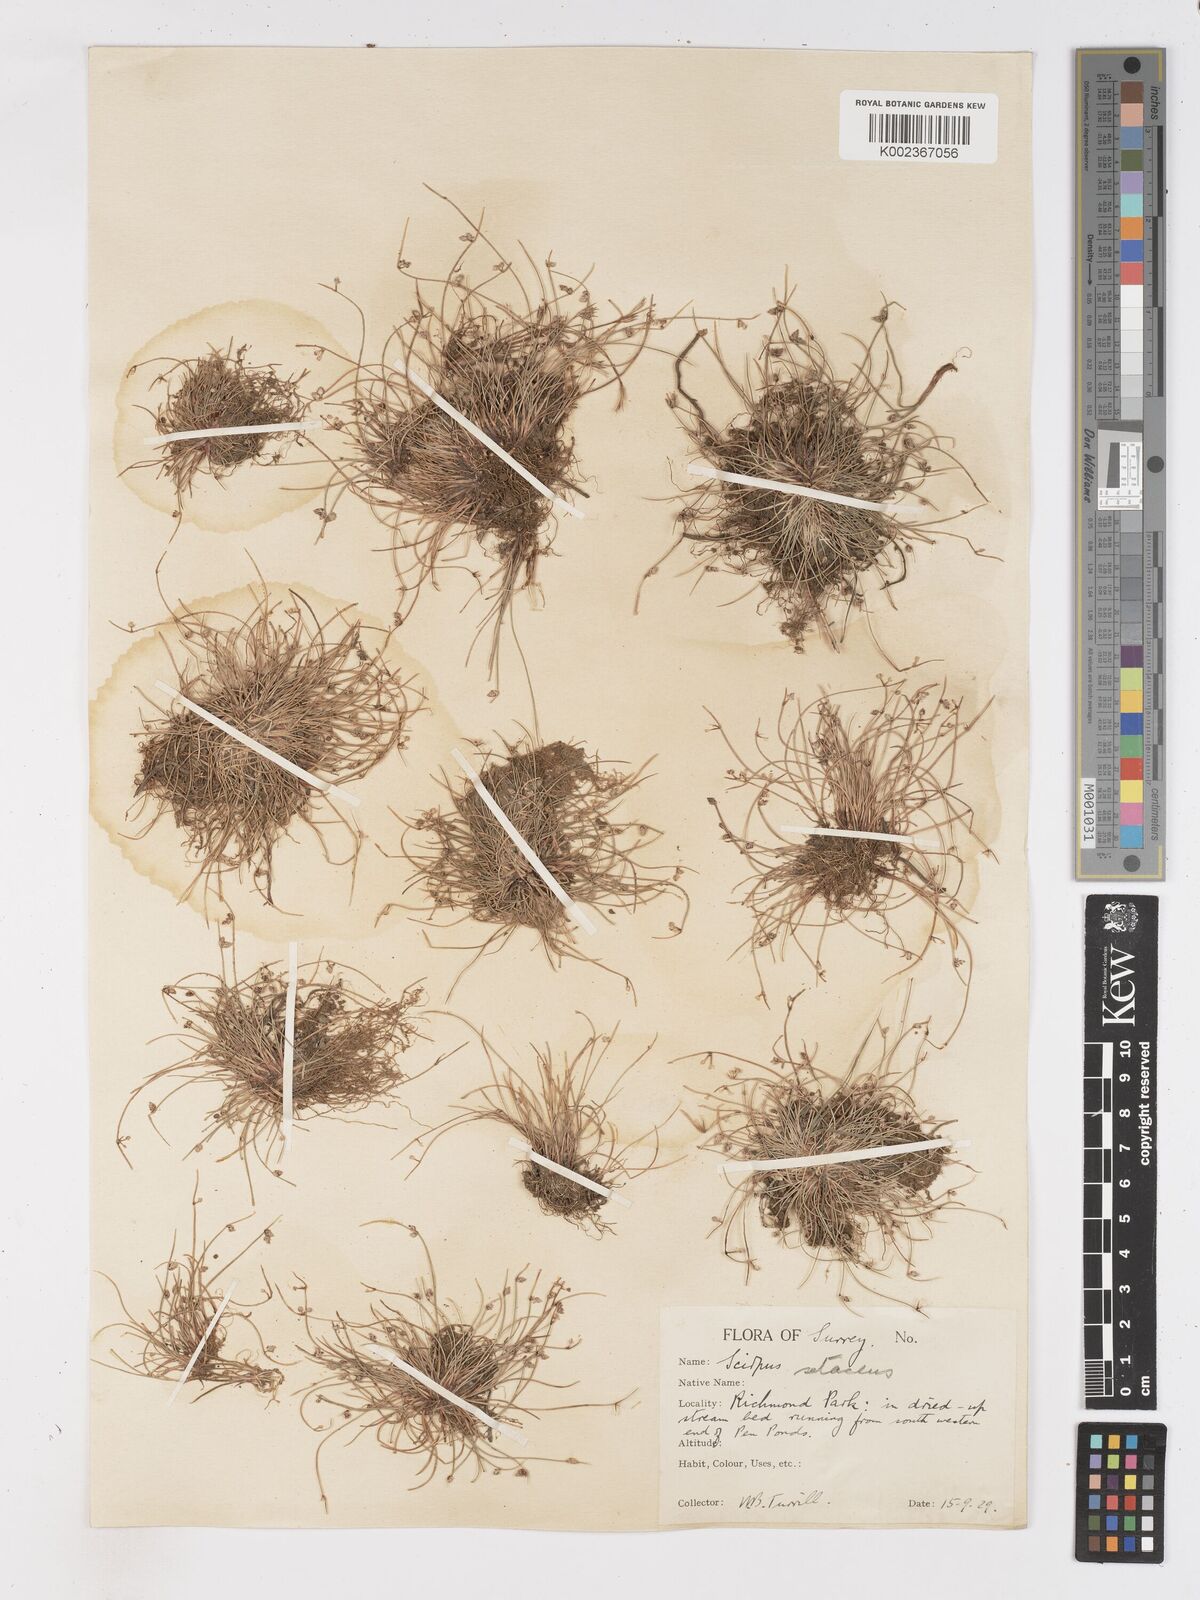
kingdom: Plantae
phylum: Tracheophyta
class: Liliopsida
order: Poales
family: Cyperaceae
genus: Isolepis
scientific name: Isolepis setacea
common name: Bristle club-rush
